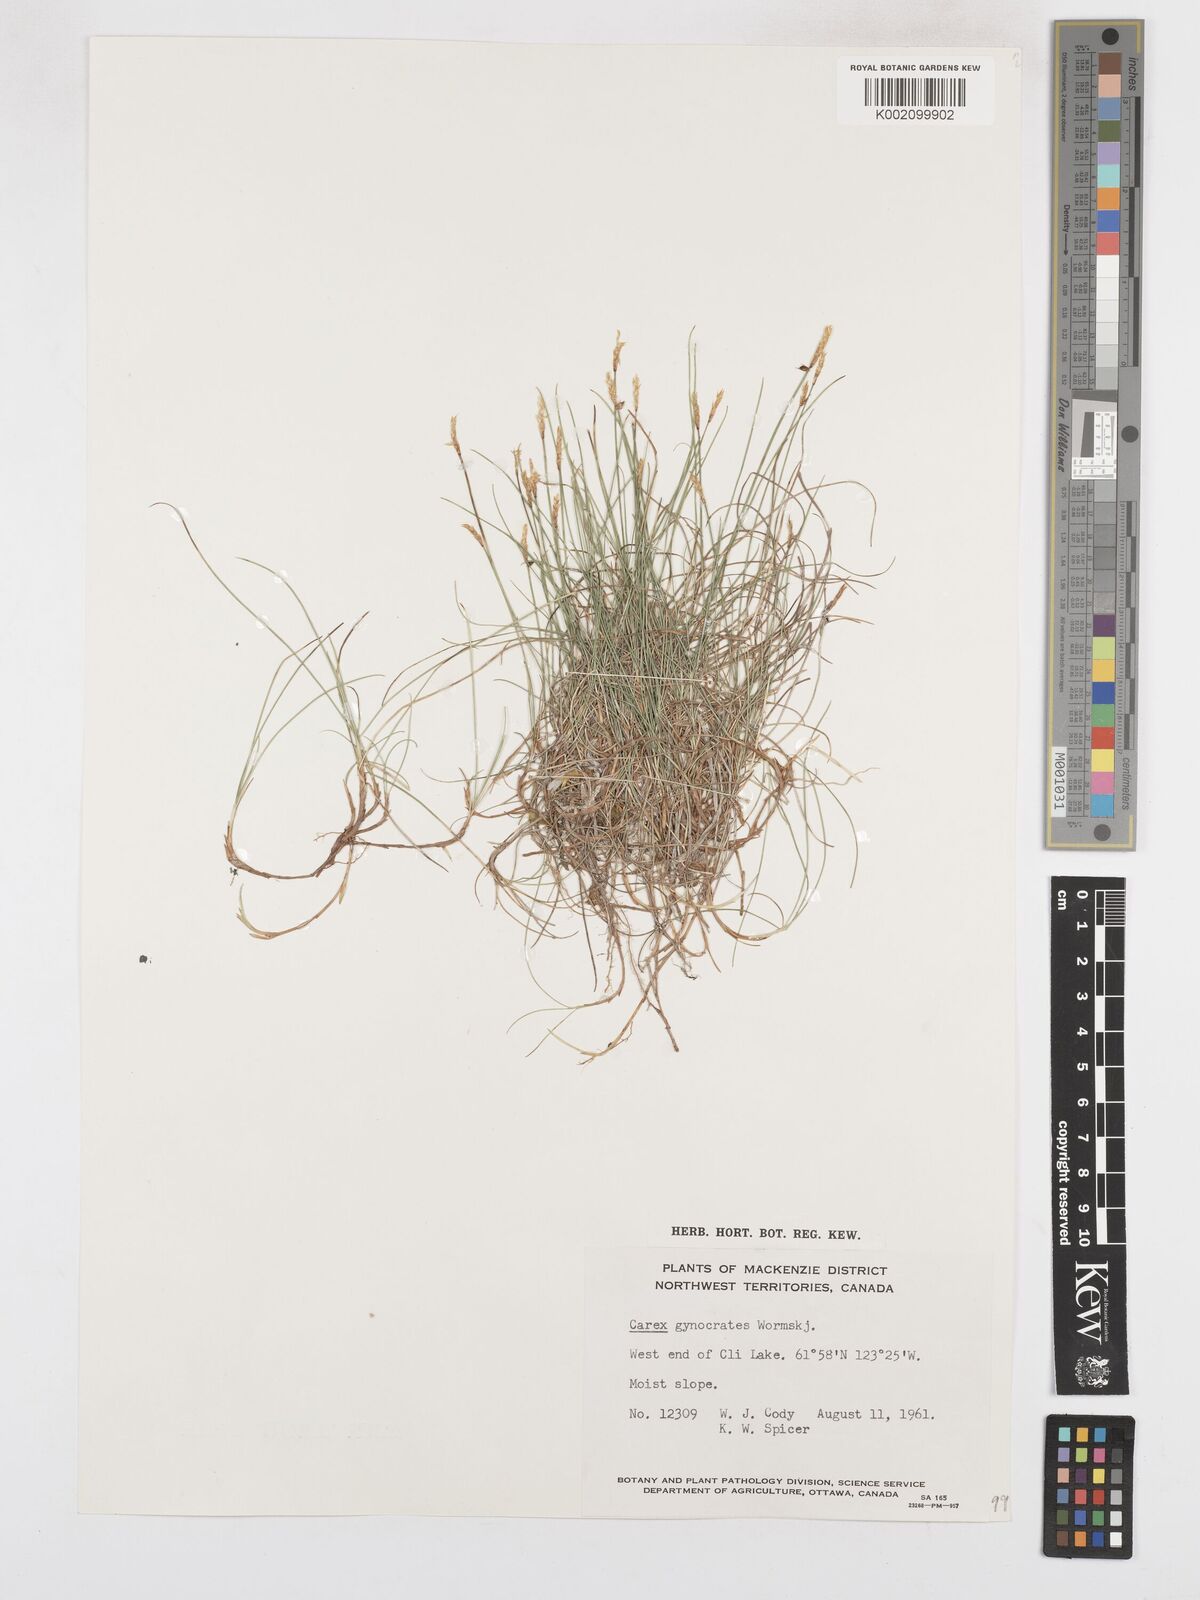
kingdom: Plantae
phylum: Tracheophyta
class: Liliopsida
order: Poales
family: Cyperaceae
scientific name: Cyperaceae
